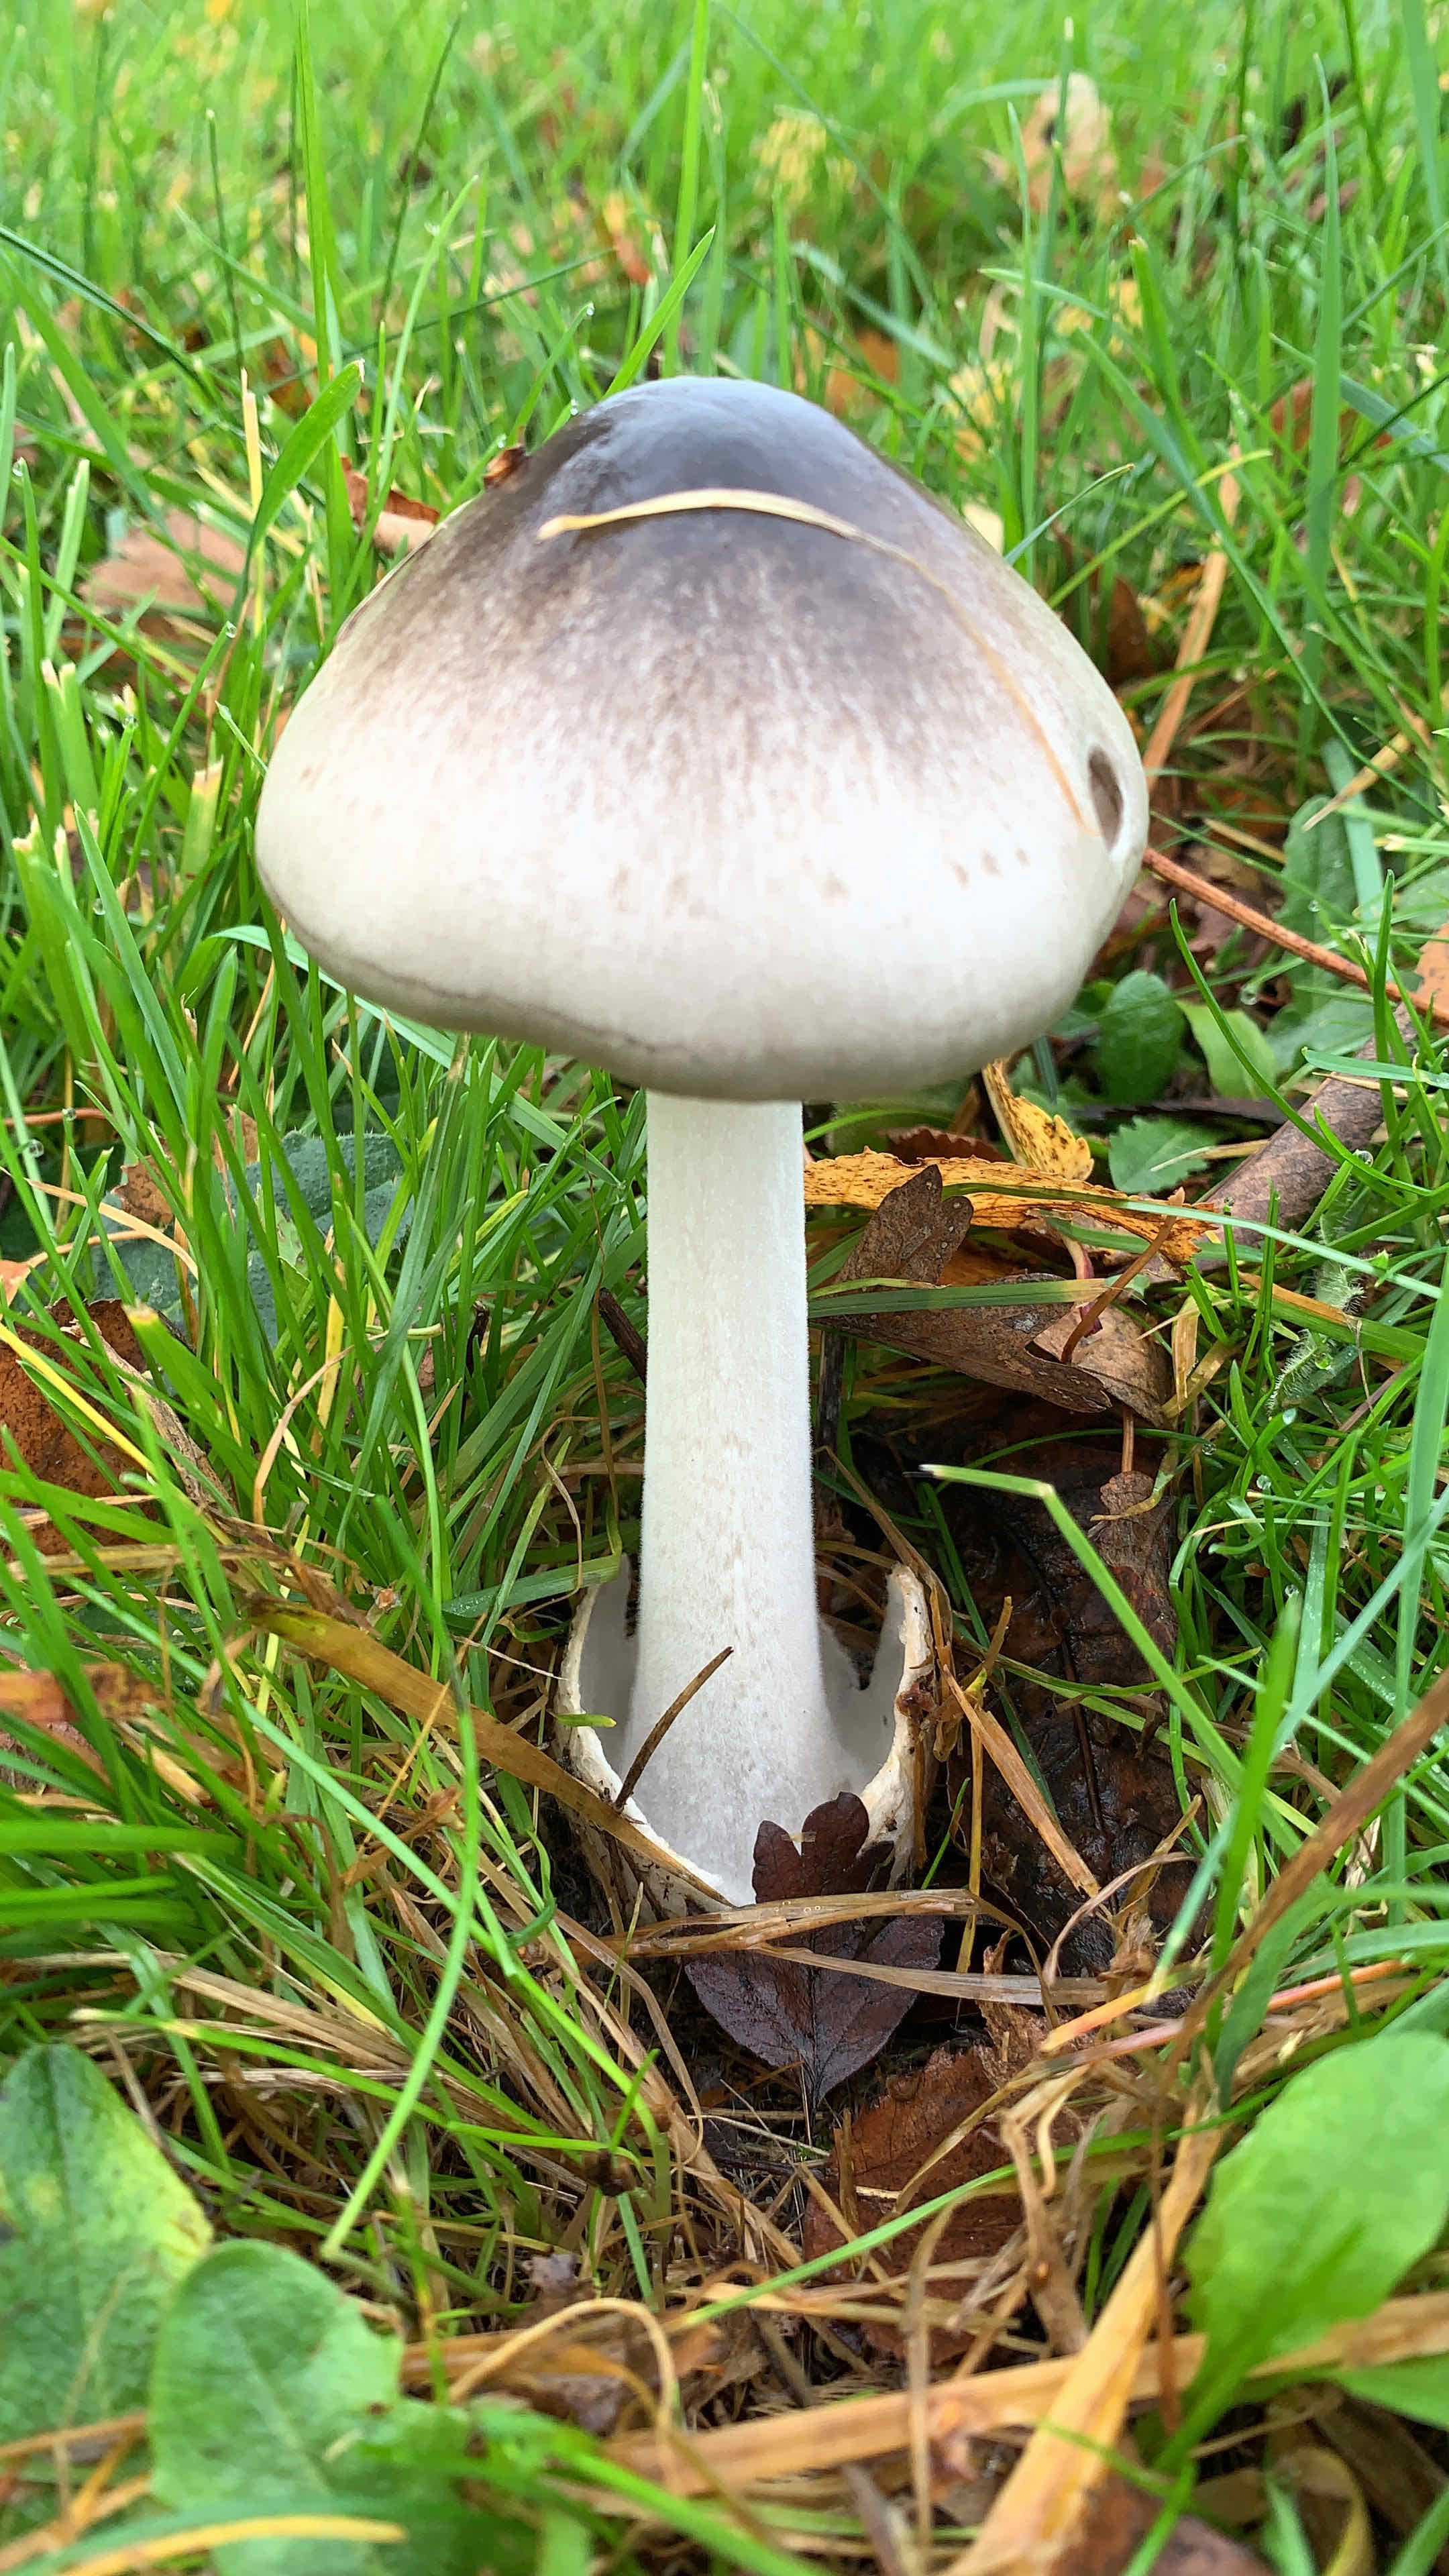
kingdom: Fungi
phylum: Basidiomycota
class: Agaricomycetes
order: Agaricales
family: Pluteaceae
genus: Volvopluteus
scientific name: Volvopluteus gloiocephalus
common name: høj posesvamp
